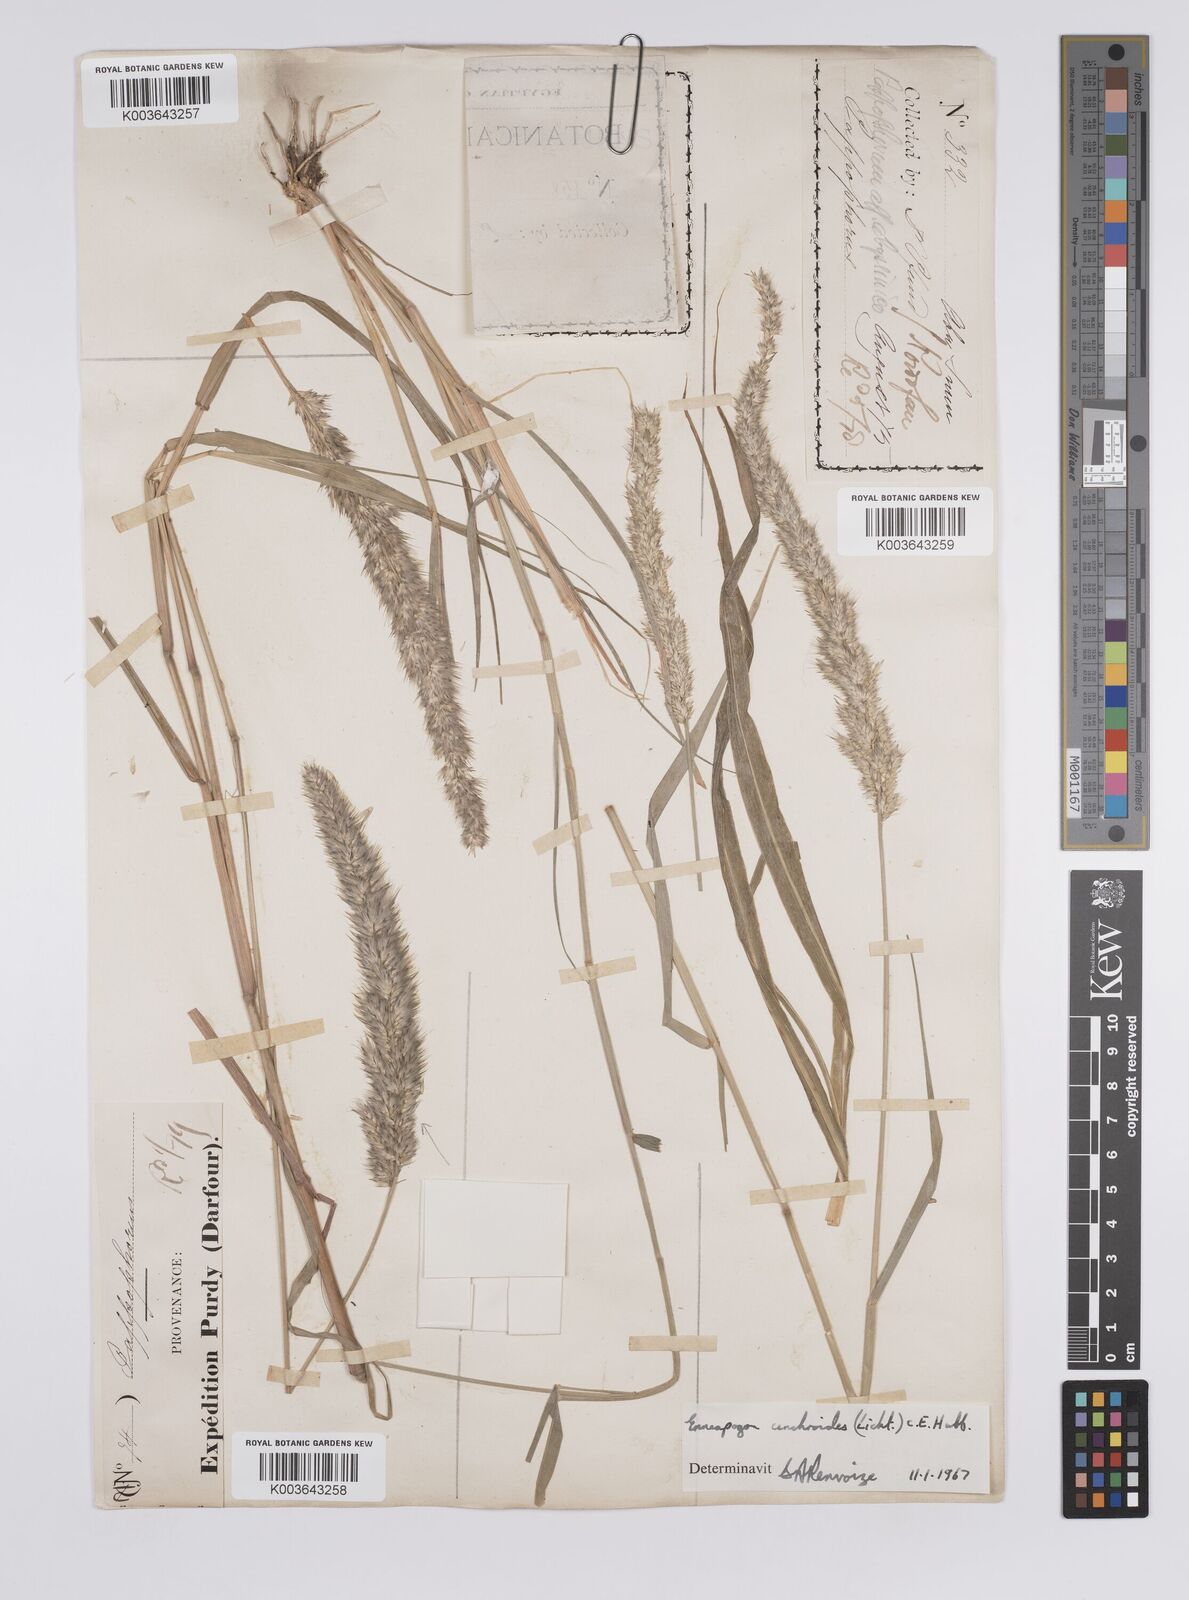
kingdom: Plantae
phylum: Tracheophyta
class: Liliopsida
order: Poales
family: Poaceae
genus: Enneapogon
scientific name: Enneapogon cenchroides
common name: Soft feather pappusgrass
